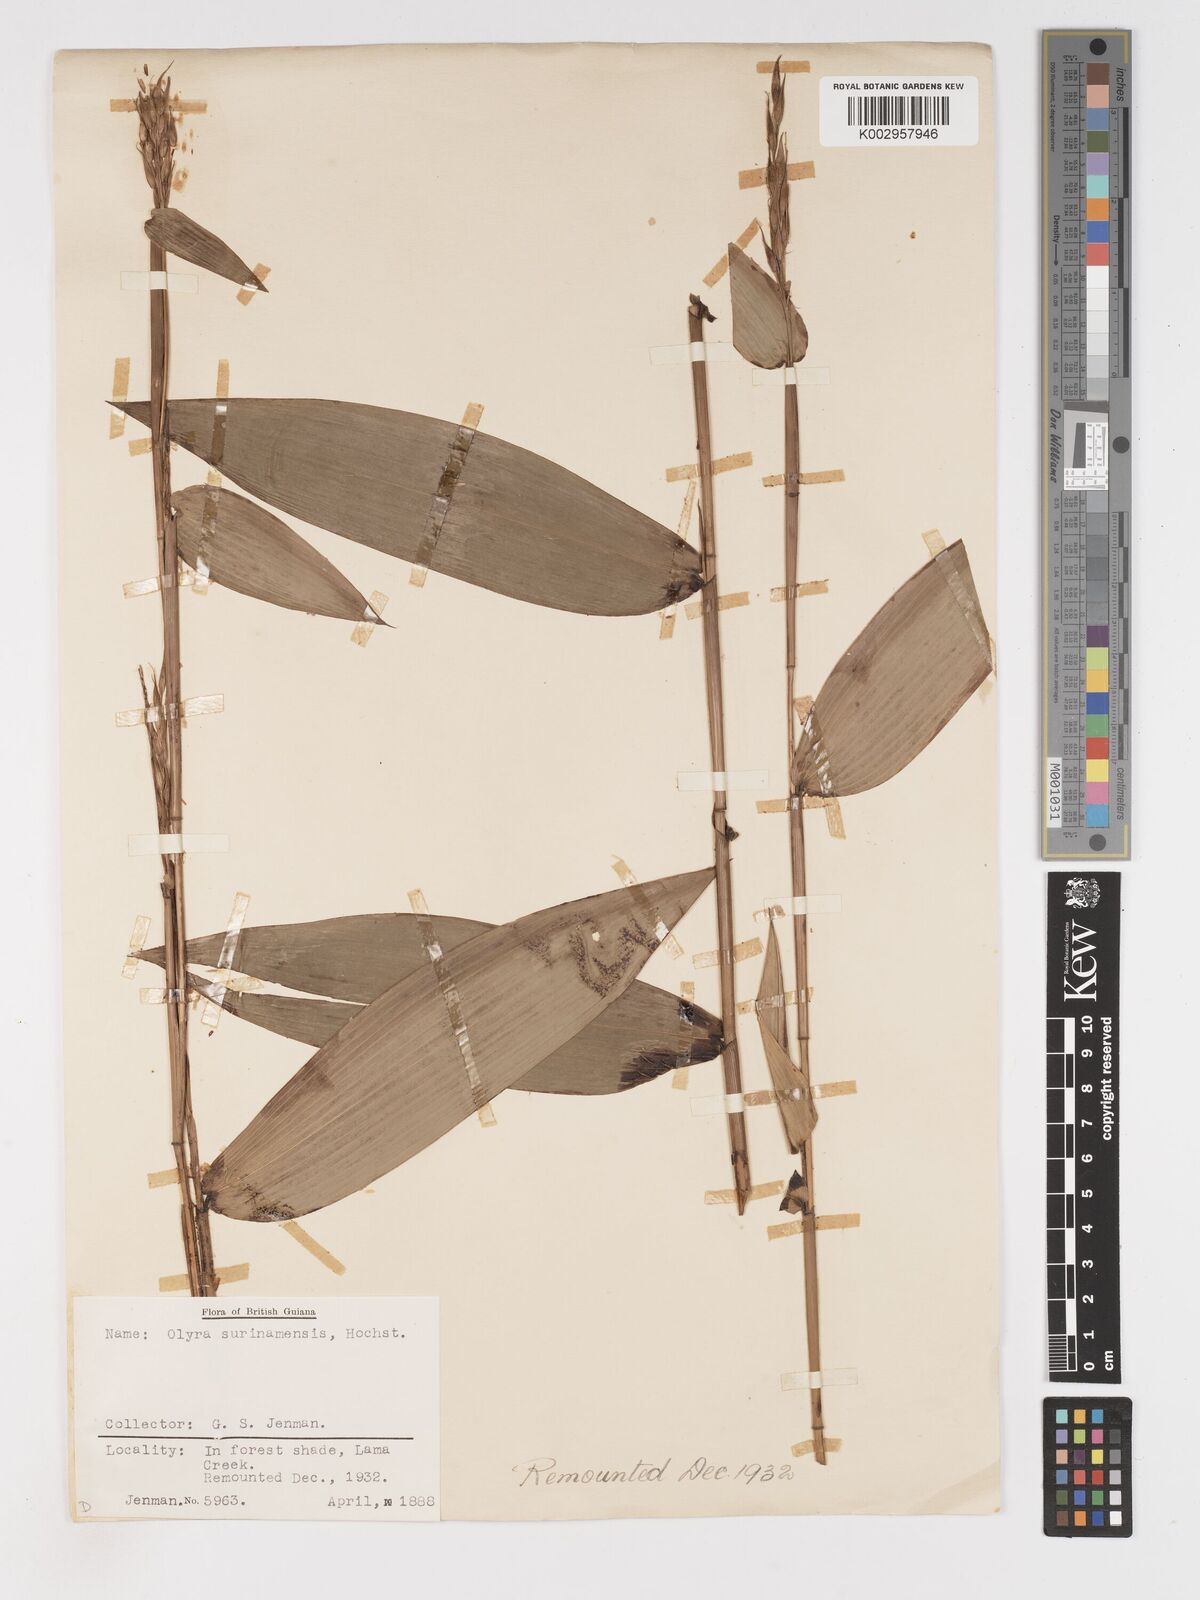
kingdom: Plantae
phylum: Tracheophyta
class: Liliopsida
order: Poales
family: Poaceae
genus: Olyra
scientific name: Olyra longifolia
